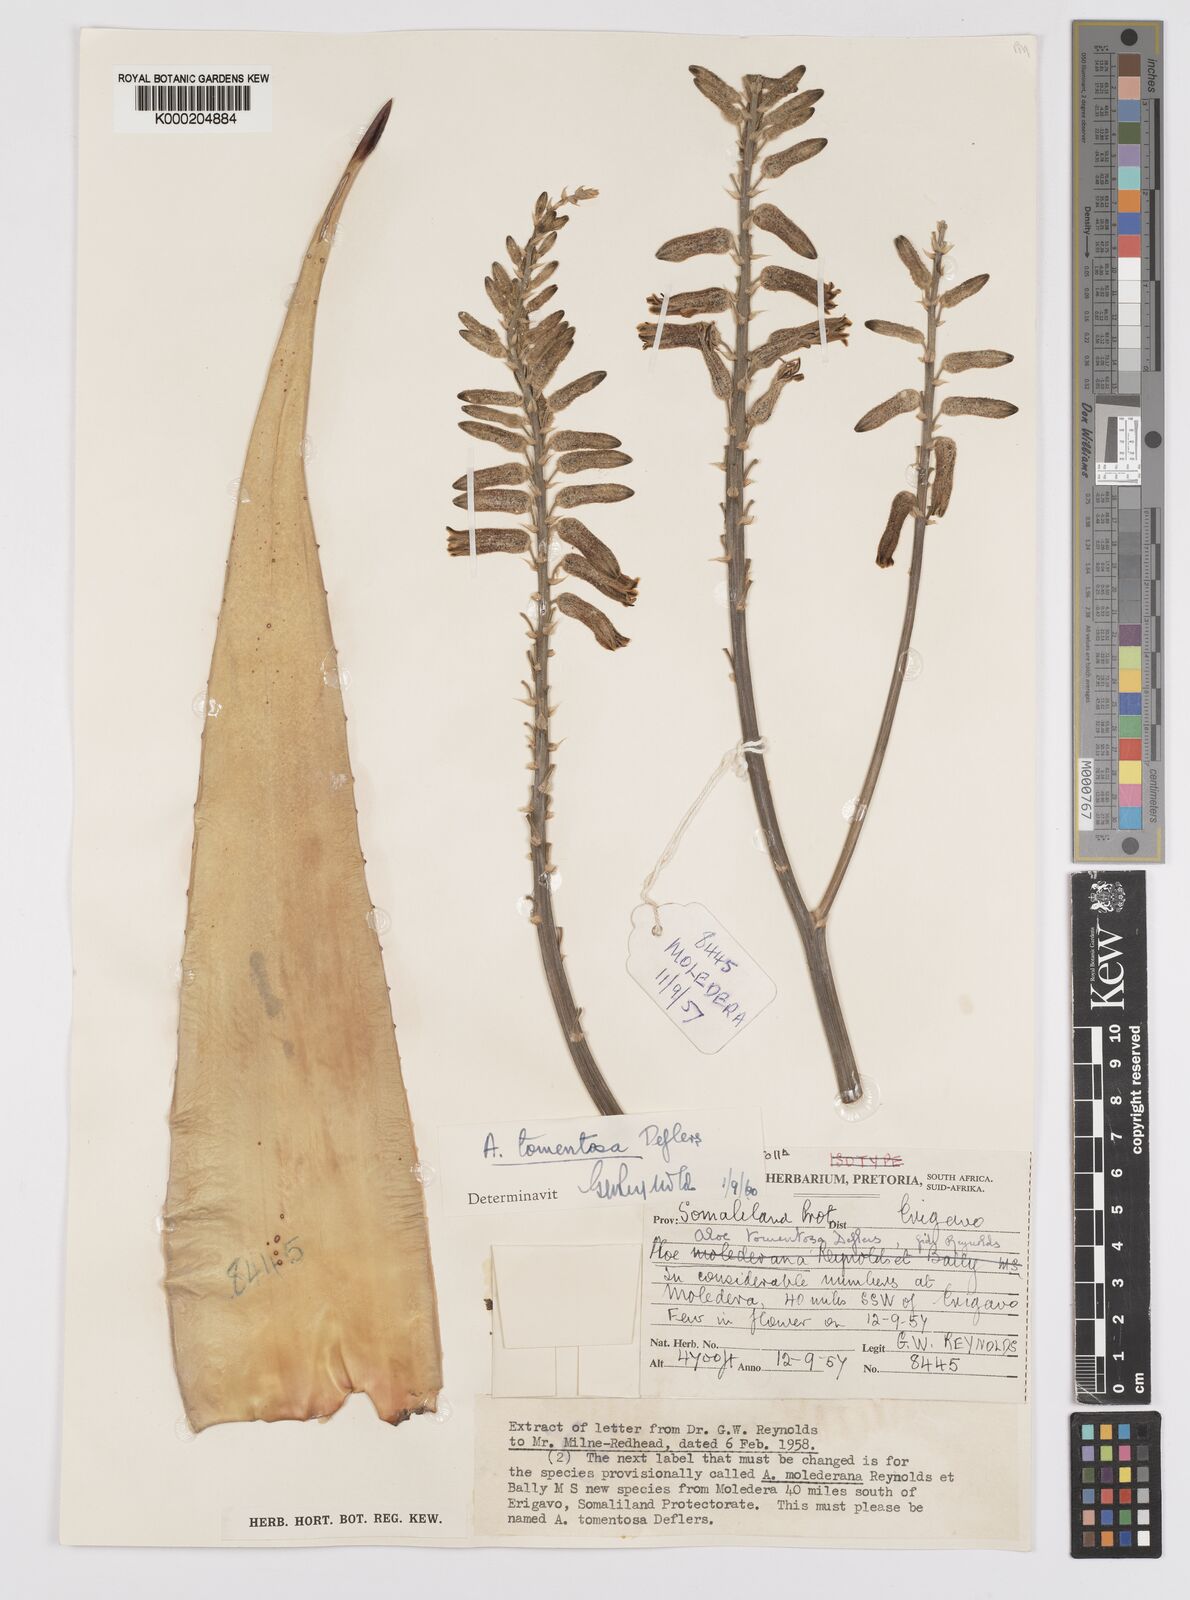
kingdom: Plantae
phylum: Tracheophyta
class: Liliopsida
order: Asparagales
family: Asphodelaceae
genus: Aloe
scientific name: Aloe molederana
